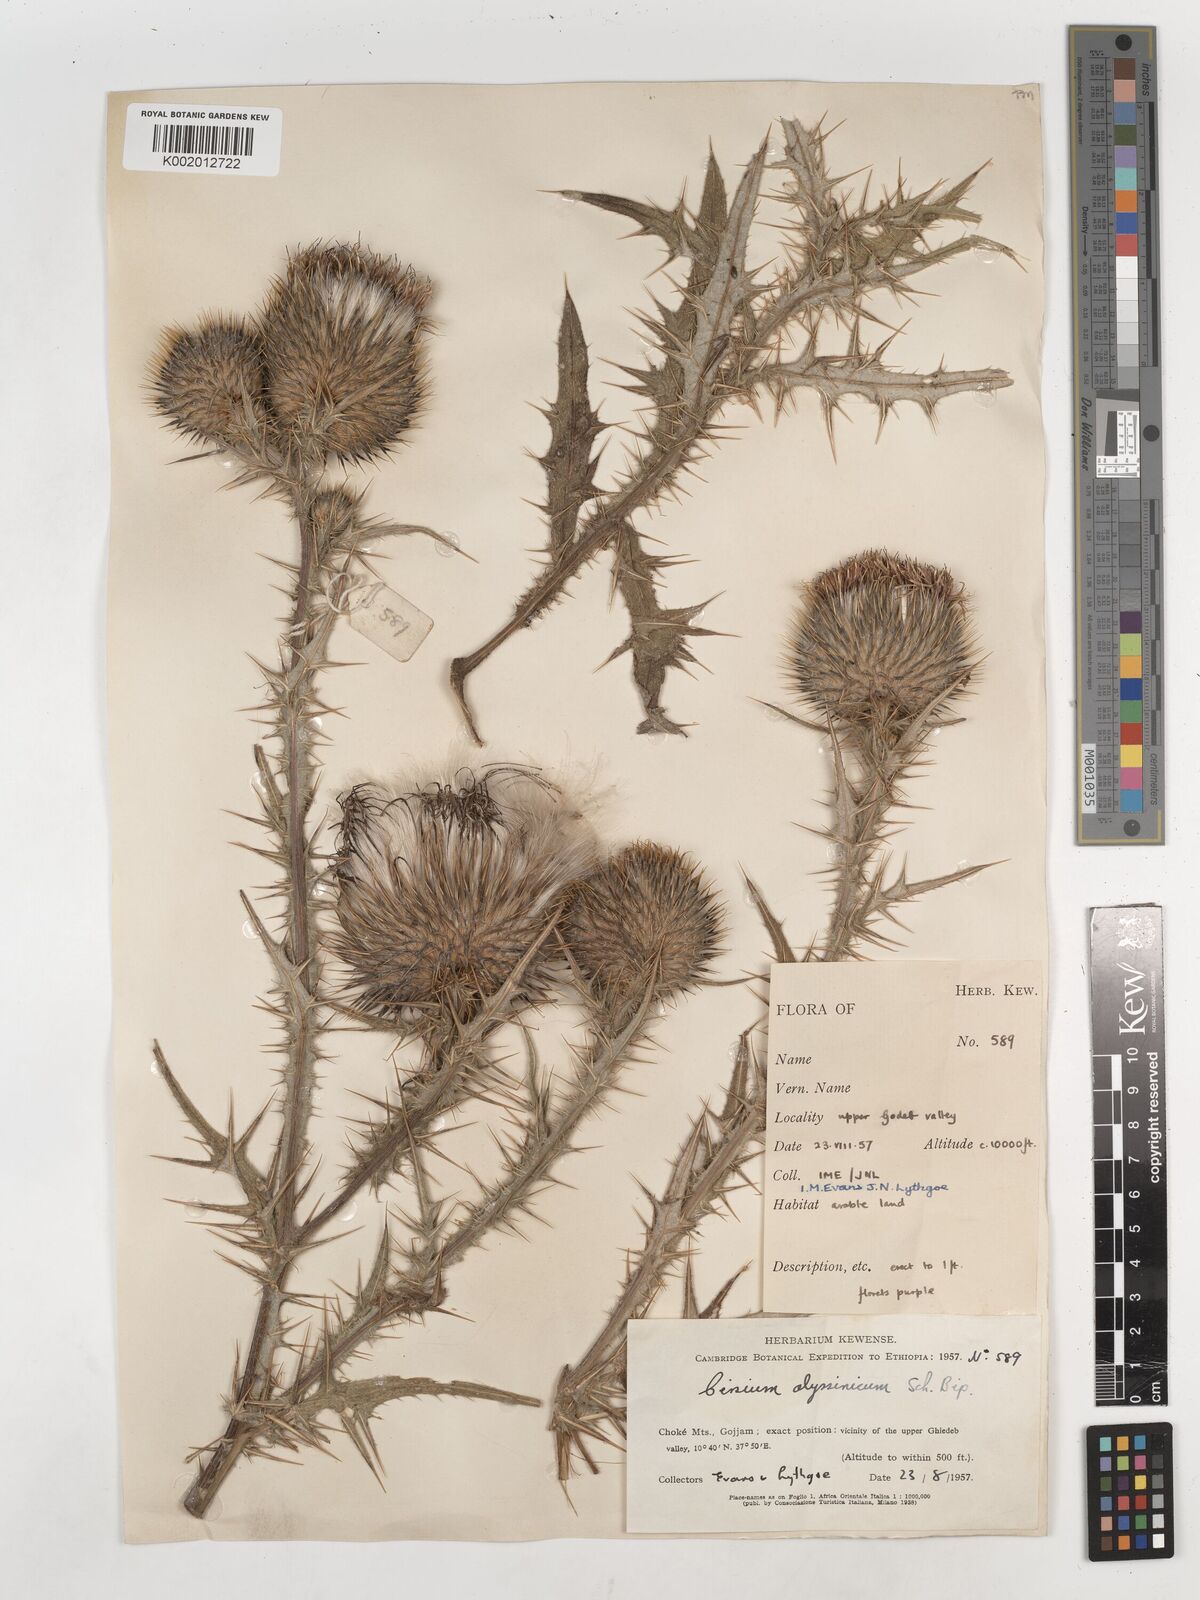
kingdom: Plantae
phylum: Tracheophyta
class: Magnoliopsida
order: Asterales
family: Asteraceae
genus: Cirsium
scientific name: Cirsium vulgare
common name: Bull thistle
